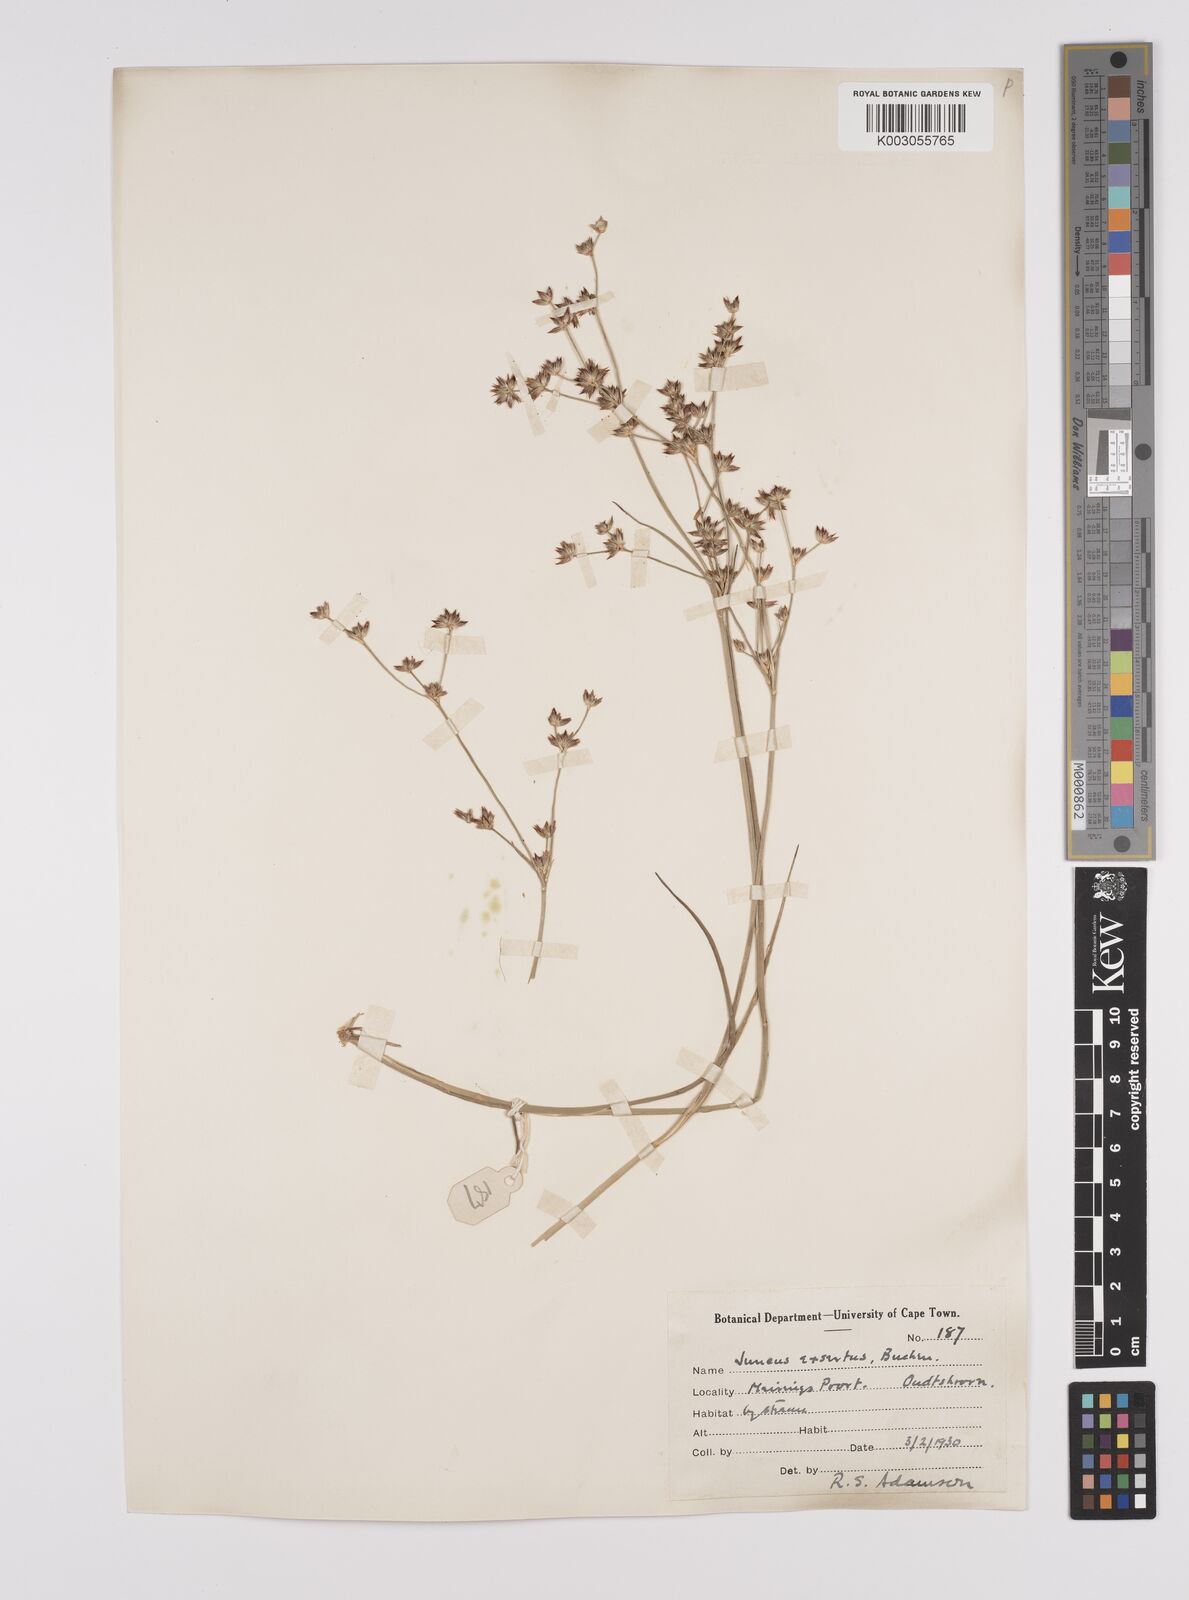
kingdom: Plantae
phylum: Tracheophyta
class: Liliopsida
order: Poales
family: Juncaceae
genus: Juncus
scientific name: Juncus exsertus
